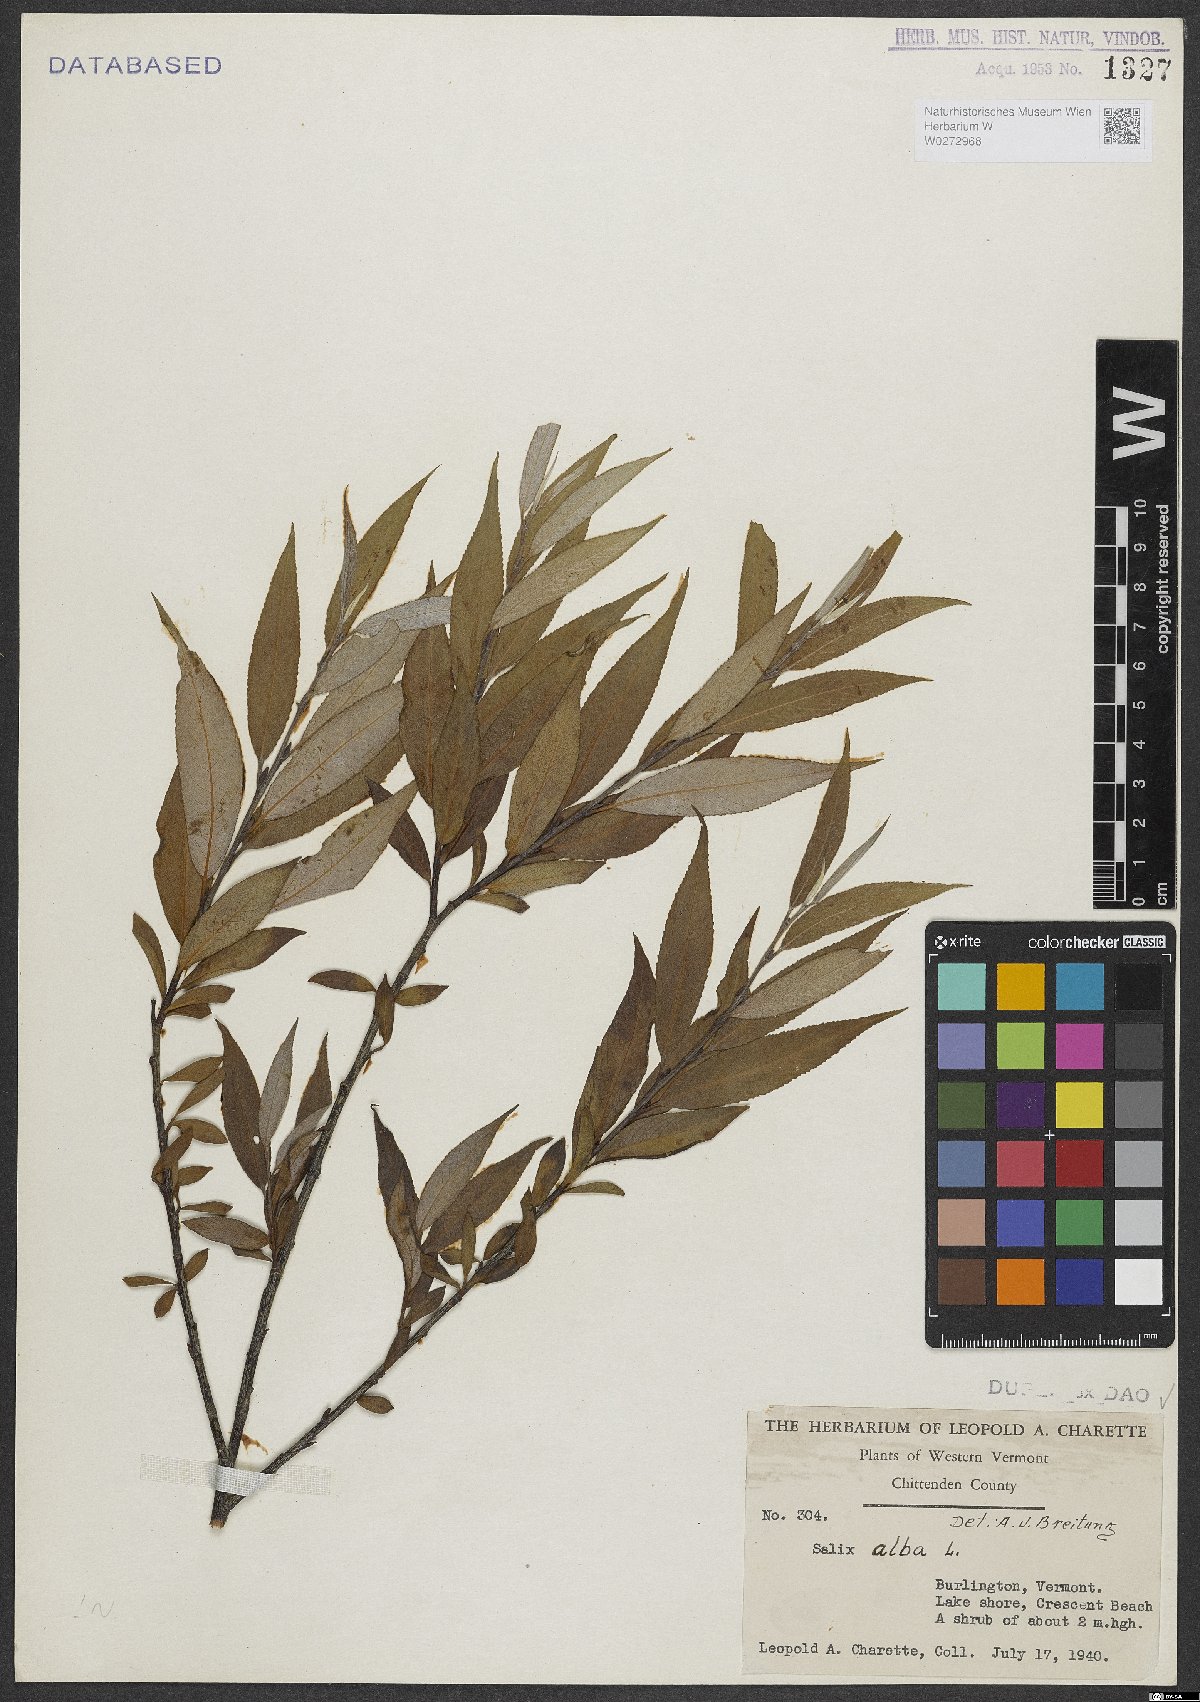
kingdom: Plantae
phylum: Tracheophyta
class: Magnoliopsida
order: Malpighiales
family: Salicaceae
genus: Salix
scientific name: Salix alba
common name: White willow
